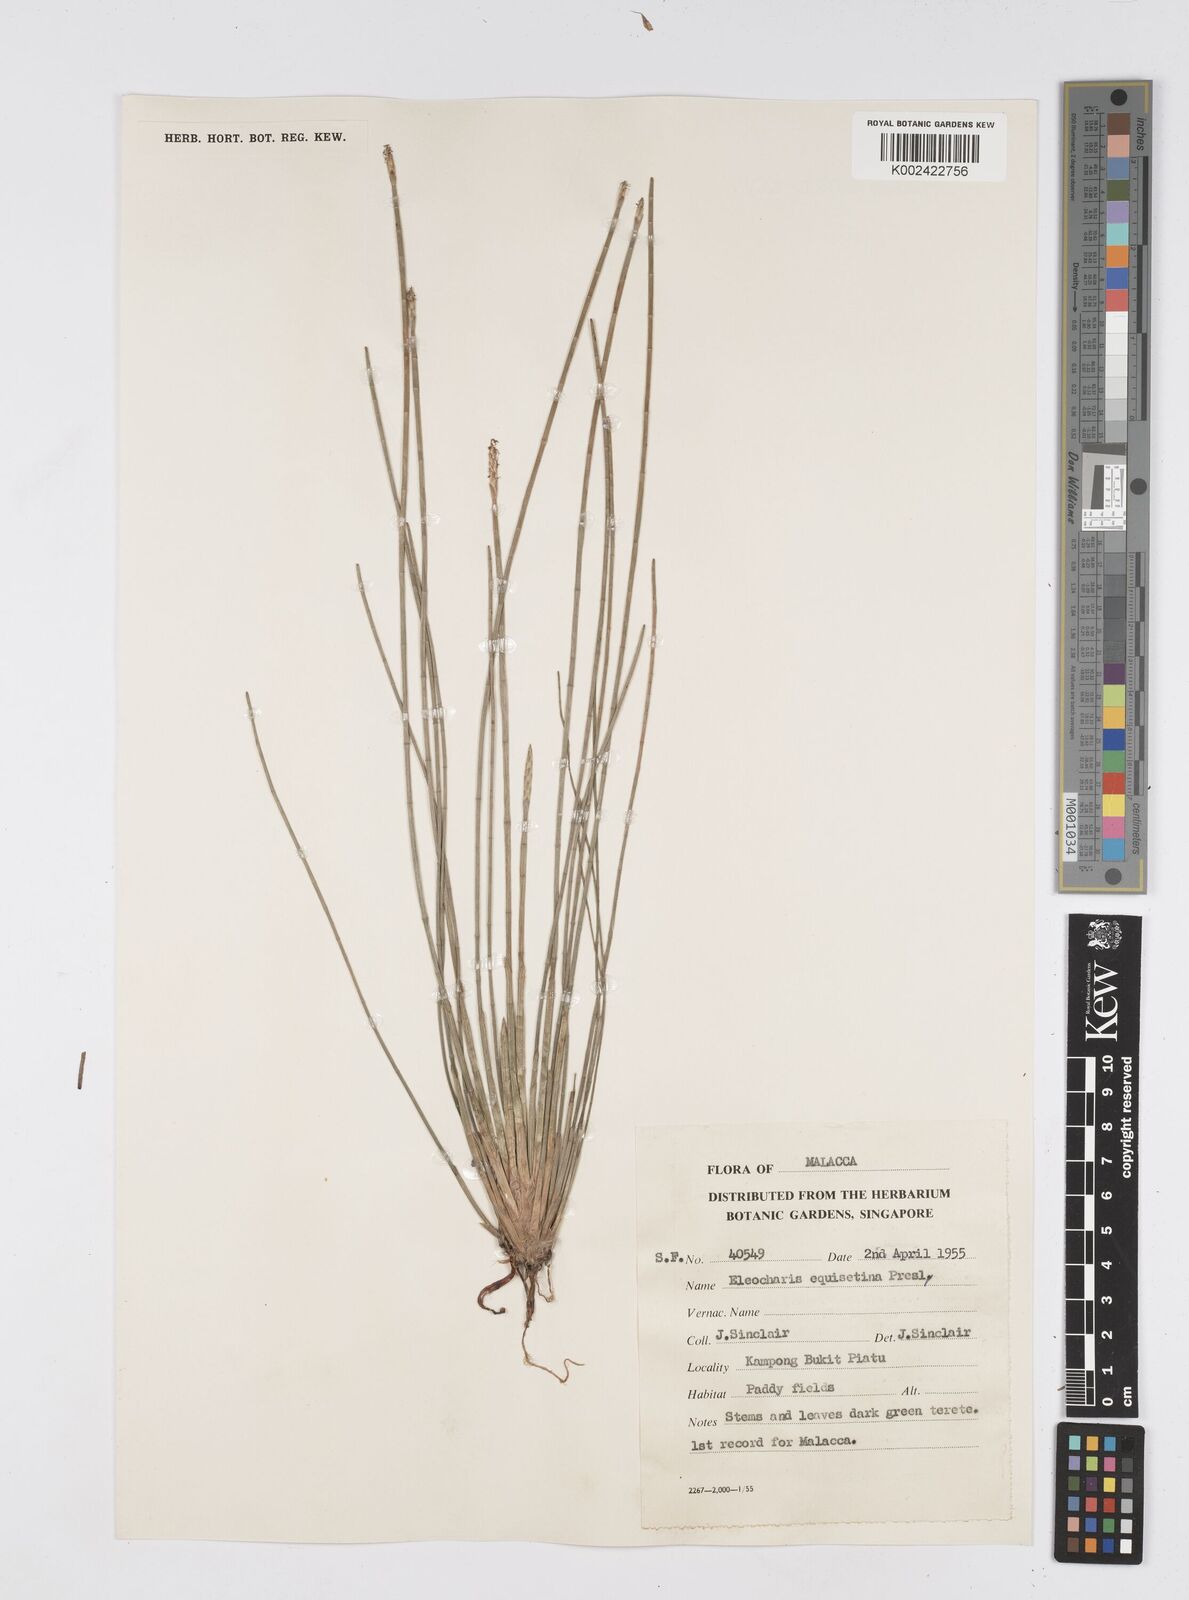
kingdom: Plantae
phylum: Tracheophyta
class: Liliopsida
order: Poales
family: Cyperaceae
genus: Eleocharis
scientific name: Eleocharis dulcis
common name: Chinese water chestnut
